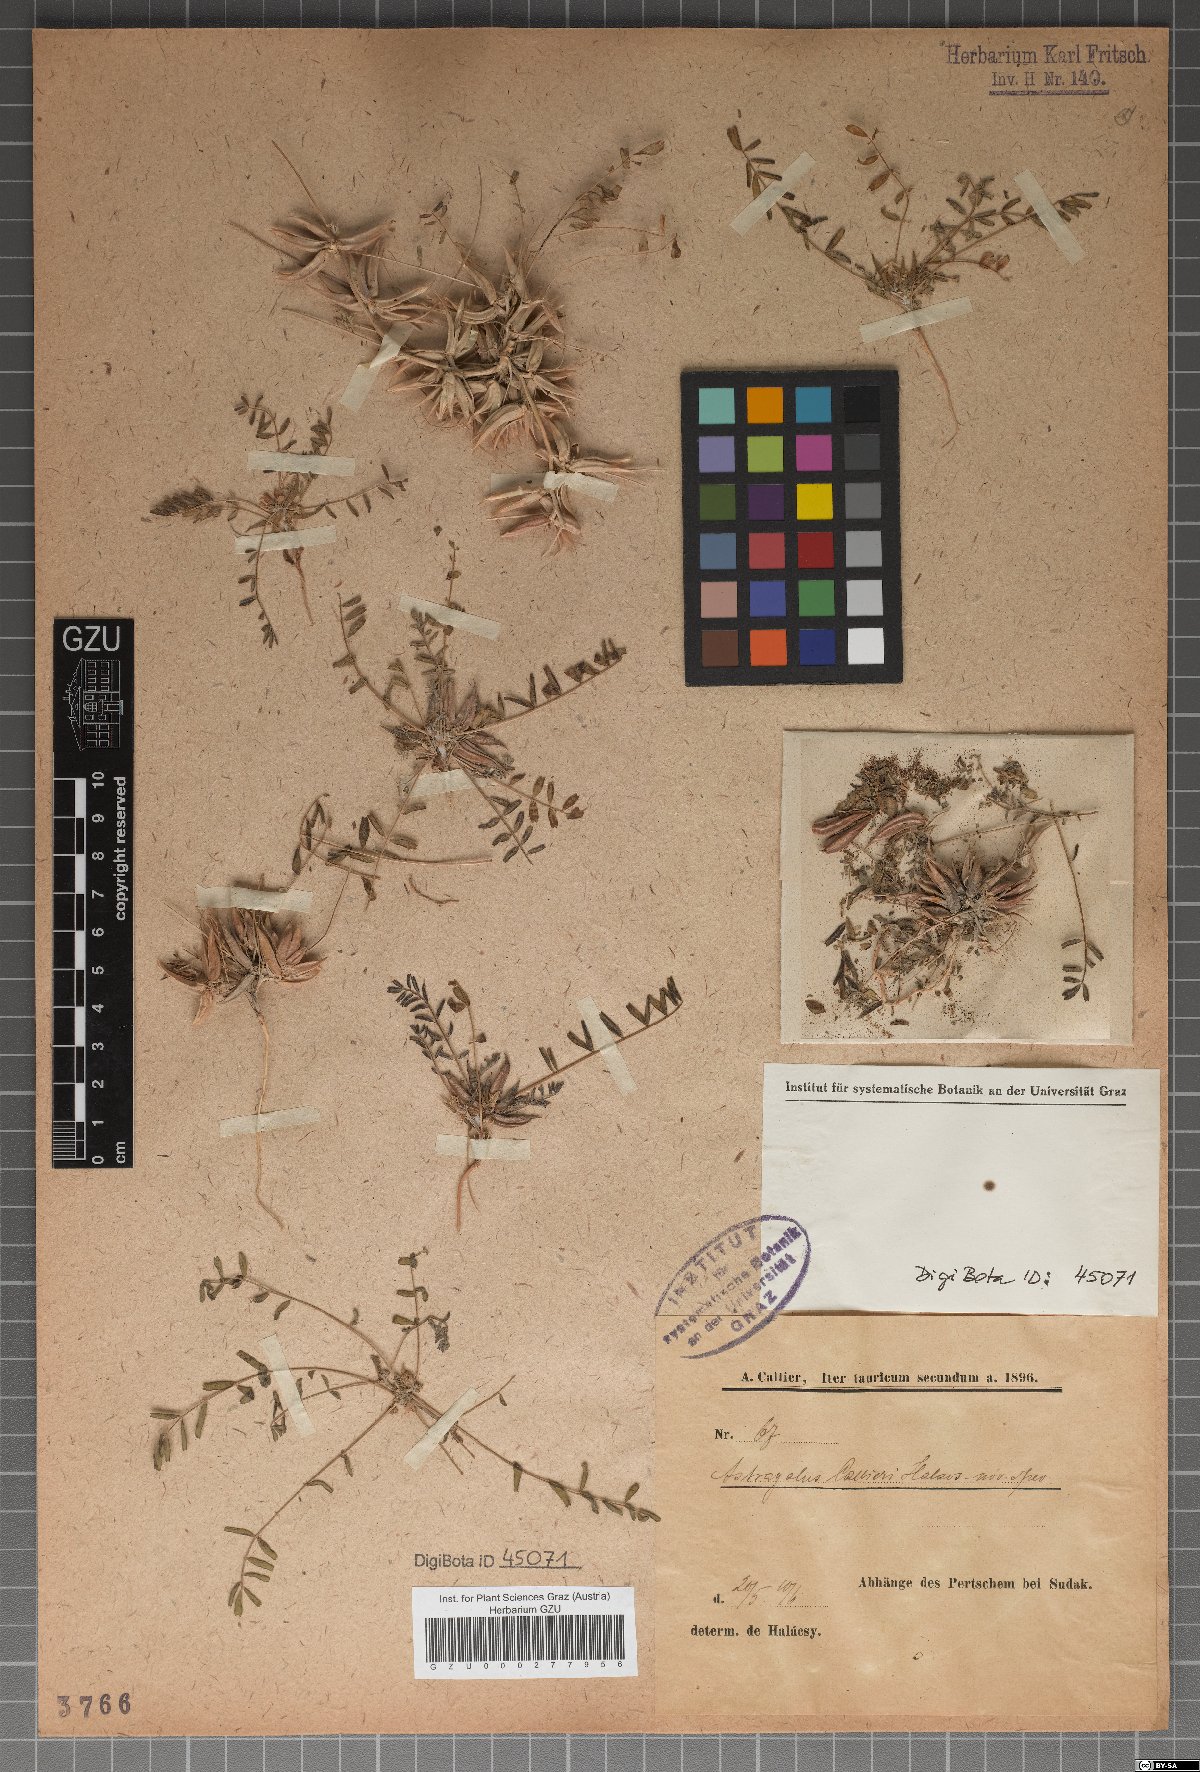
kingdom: Plantae
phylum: Tracheophyta
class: Magnoliopsida
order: Fabales
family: Fabaceae
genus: Astragalus
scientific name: Astragalus
